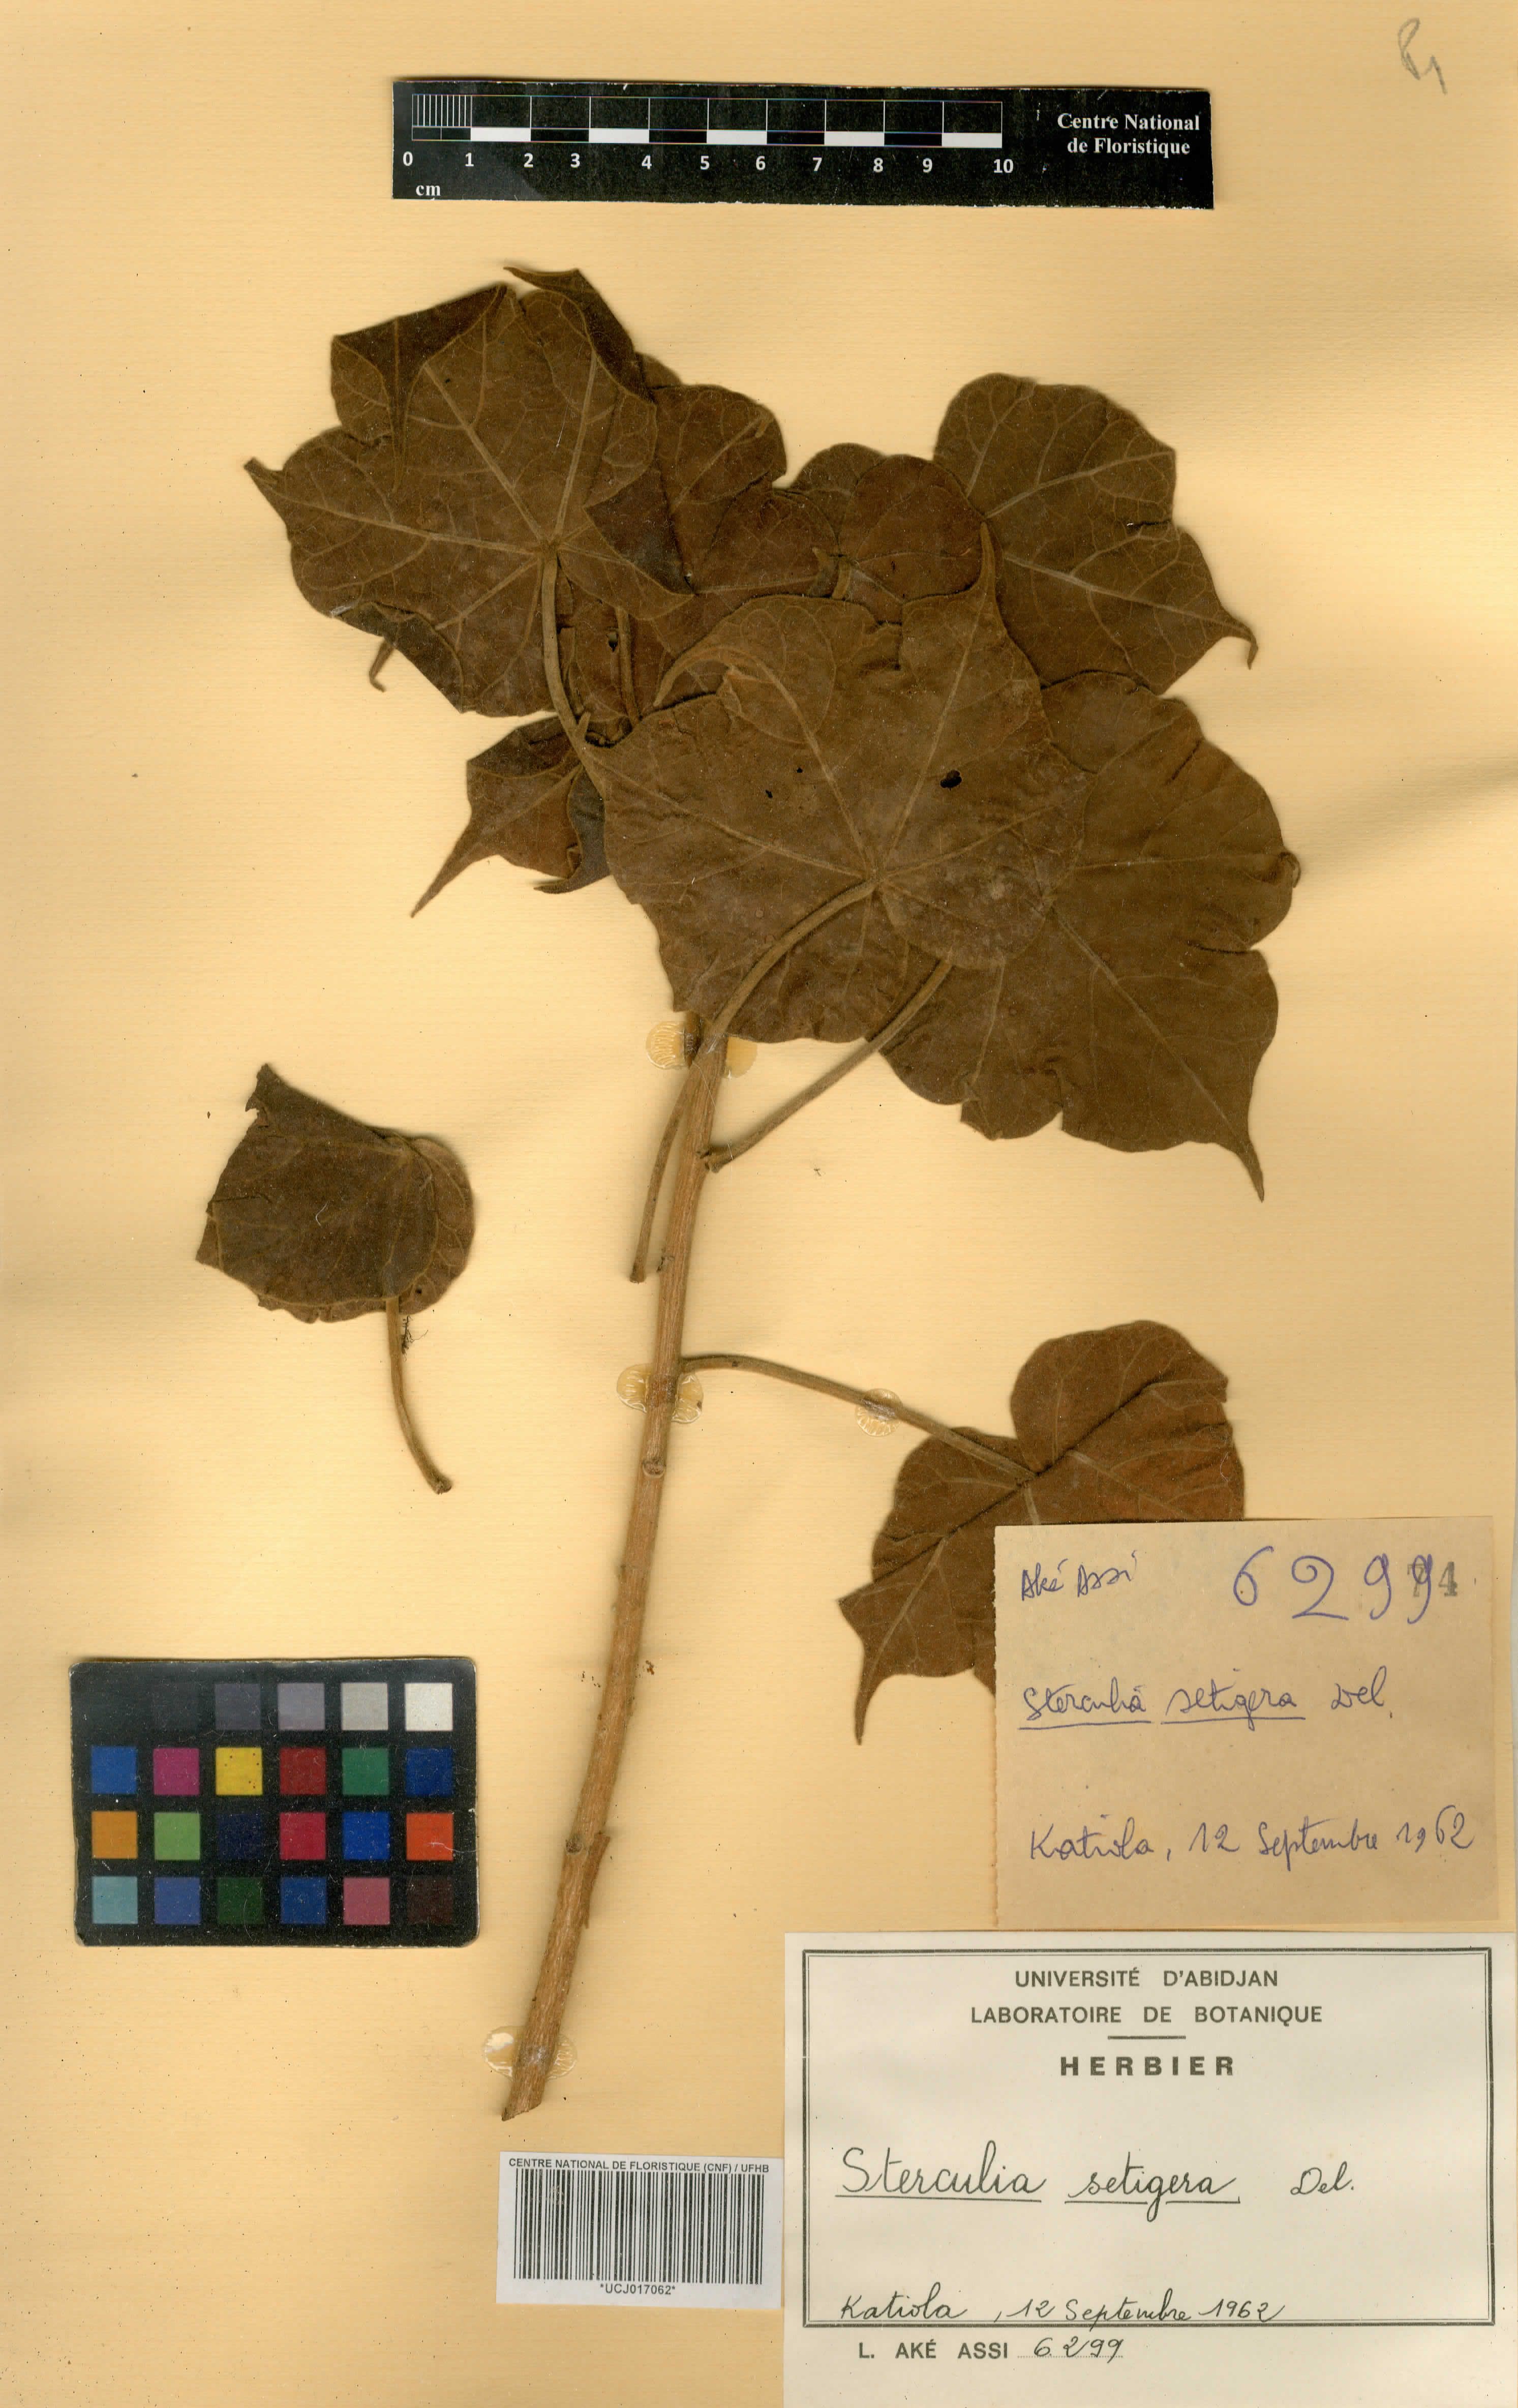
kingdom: Plantae
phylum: Tracheophyta
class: Magnoliopsida
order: Malvales
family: Malvaceae
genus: Sterculia
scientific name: Sterculia setigera
